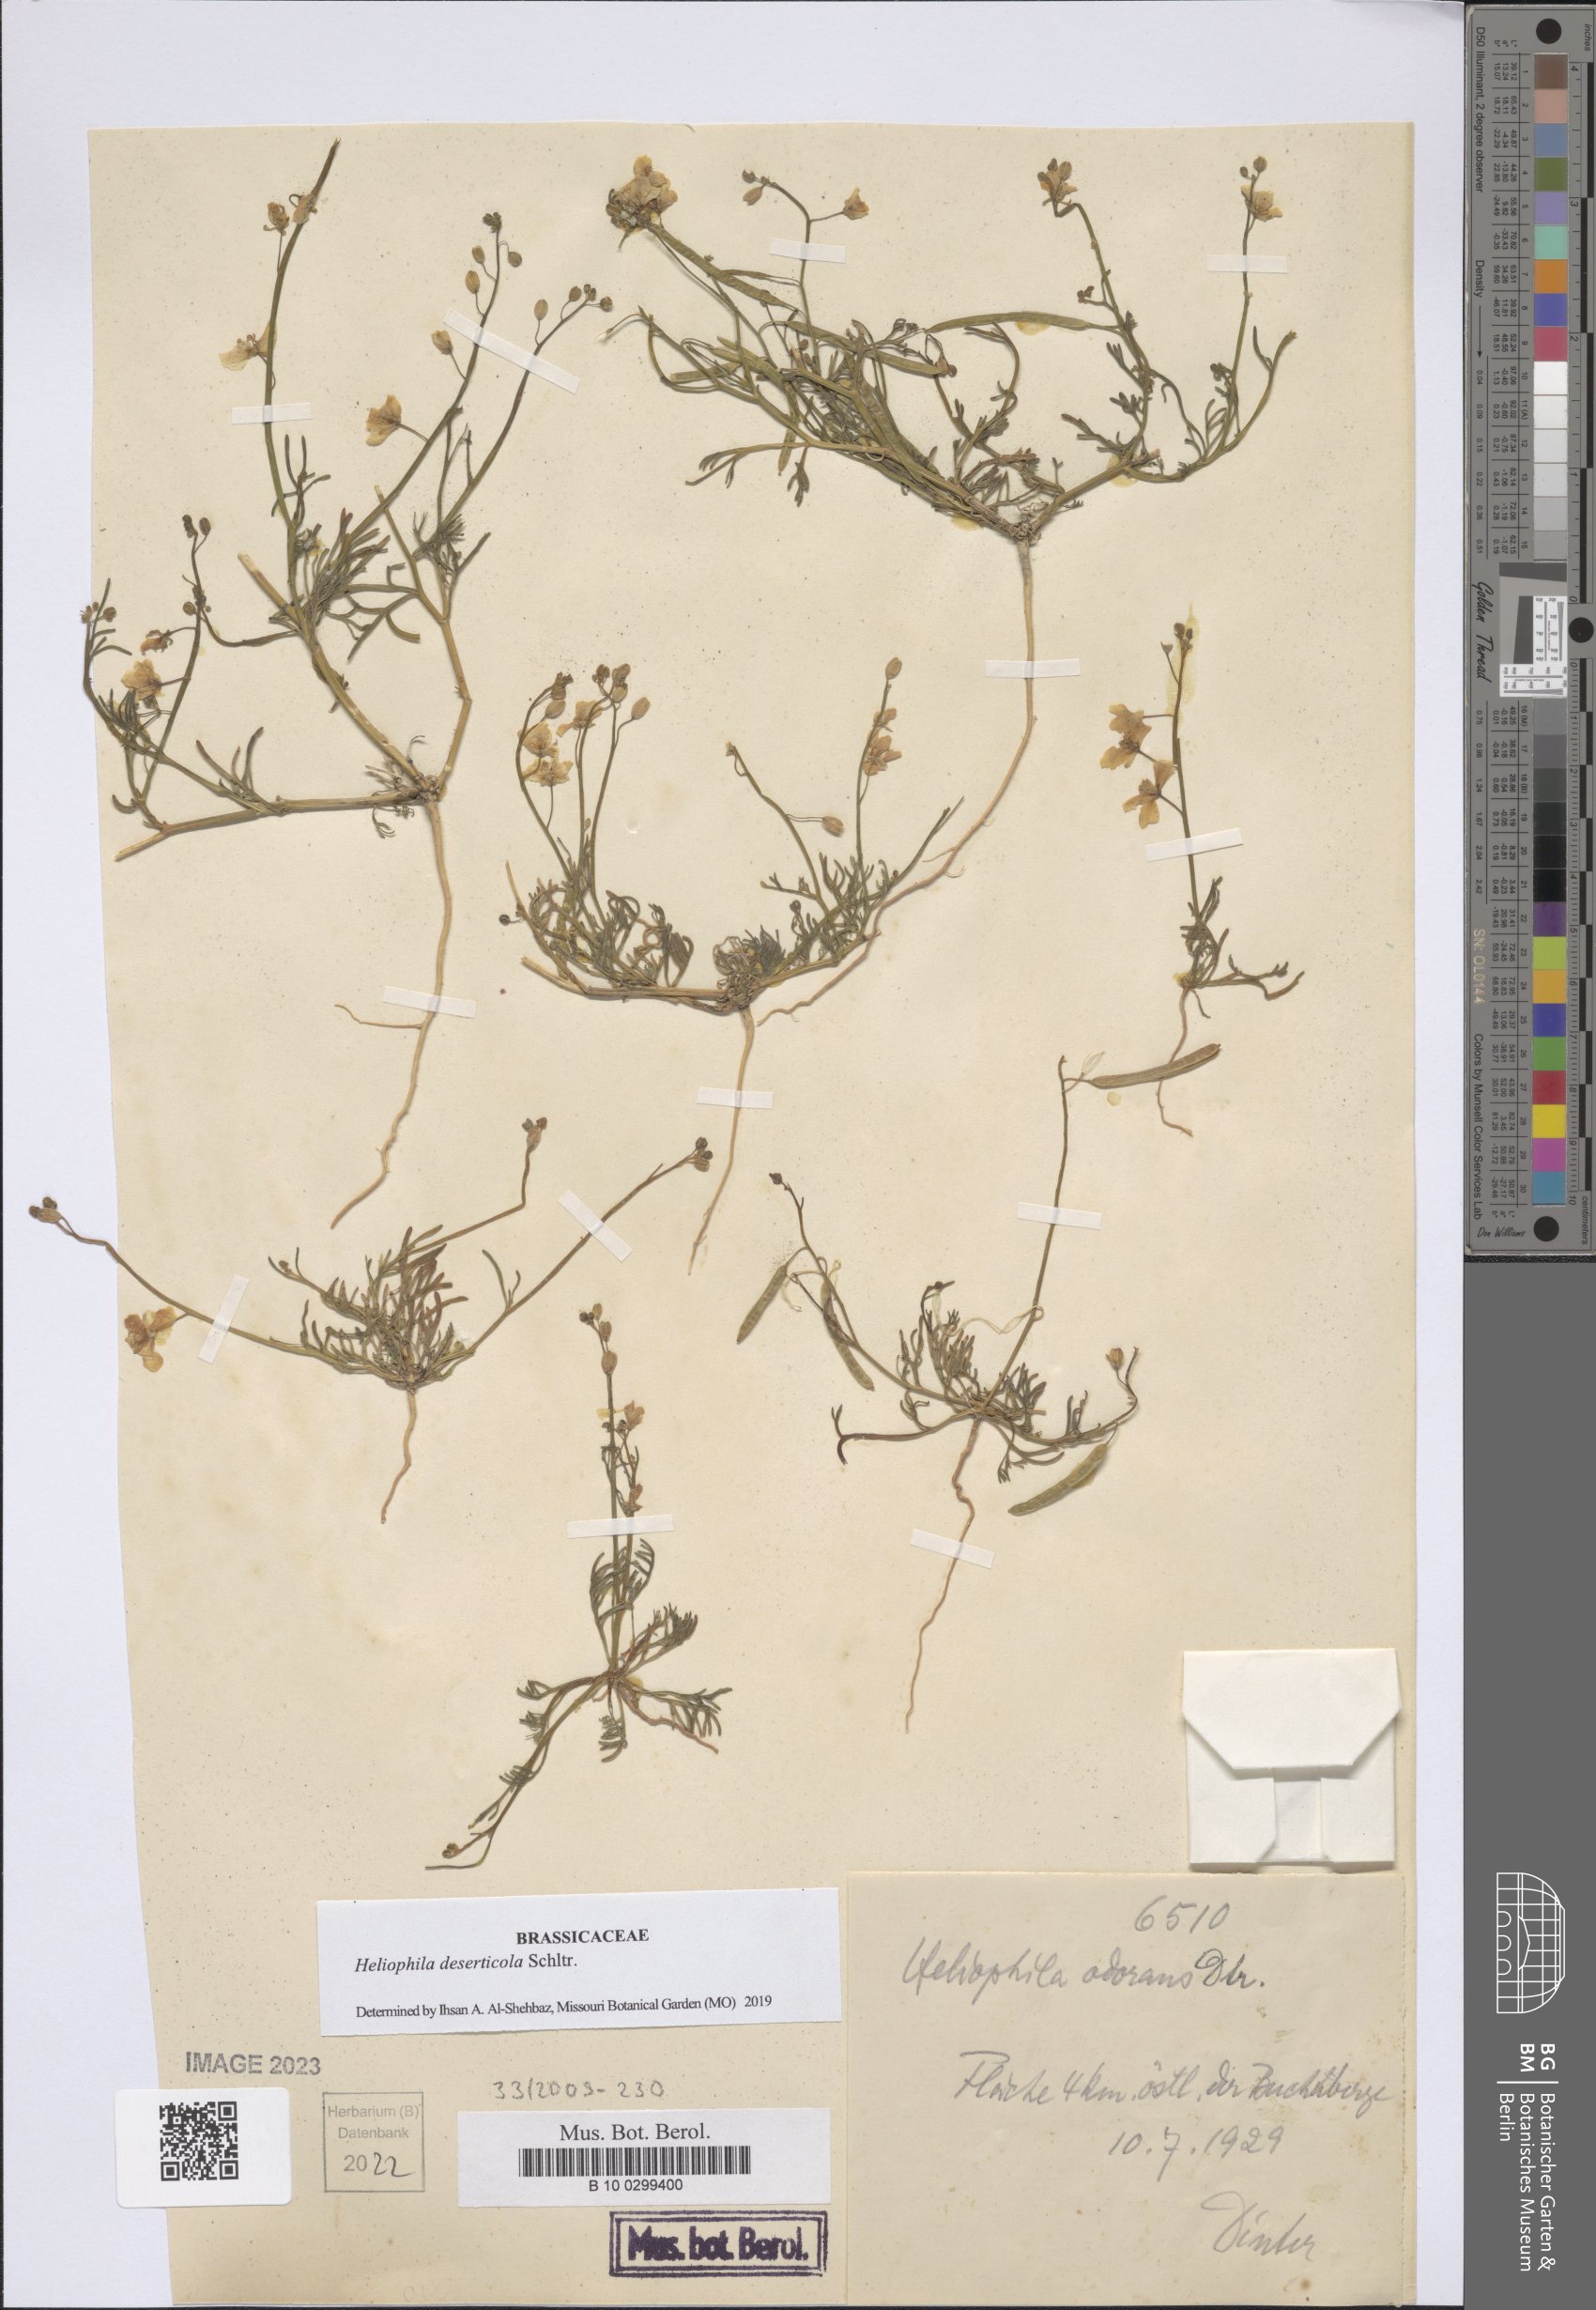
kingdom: Plantae
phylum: Tracheophyta
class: Magnoliopsida
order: Brassicales
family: Brassicaceae
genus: Heliophila
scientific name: Heliophila deserticola
